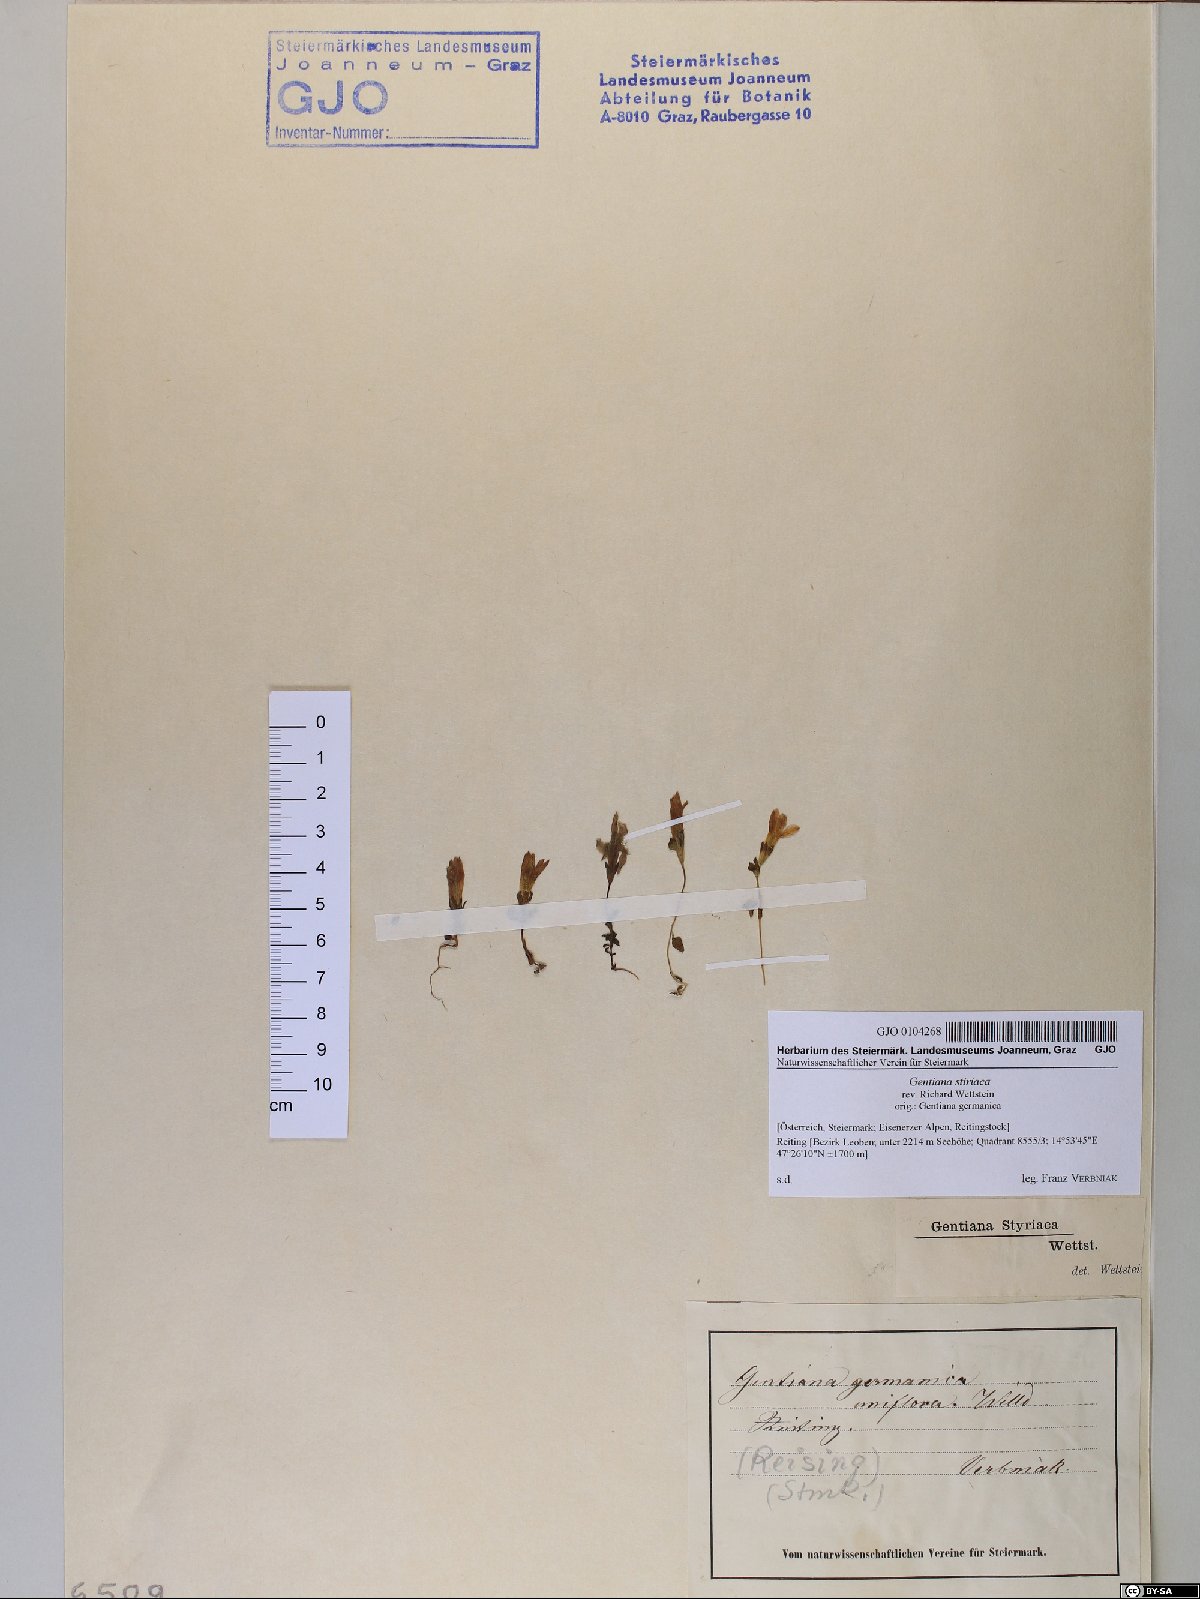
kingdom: Plantae
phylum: Tracheophyta
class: Magnoliopsida
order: Gentianales
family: Gentianaceae
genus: Gentianella
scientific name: Gentianella rhaetica
